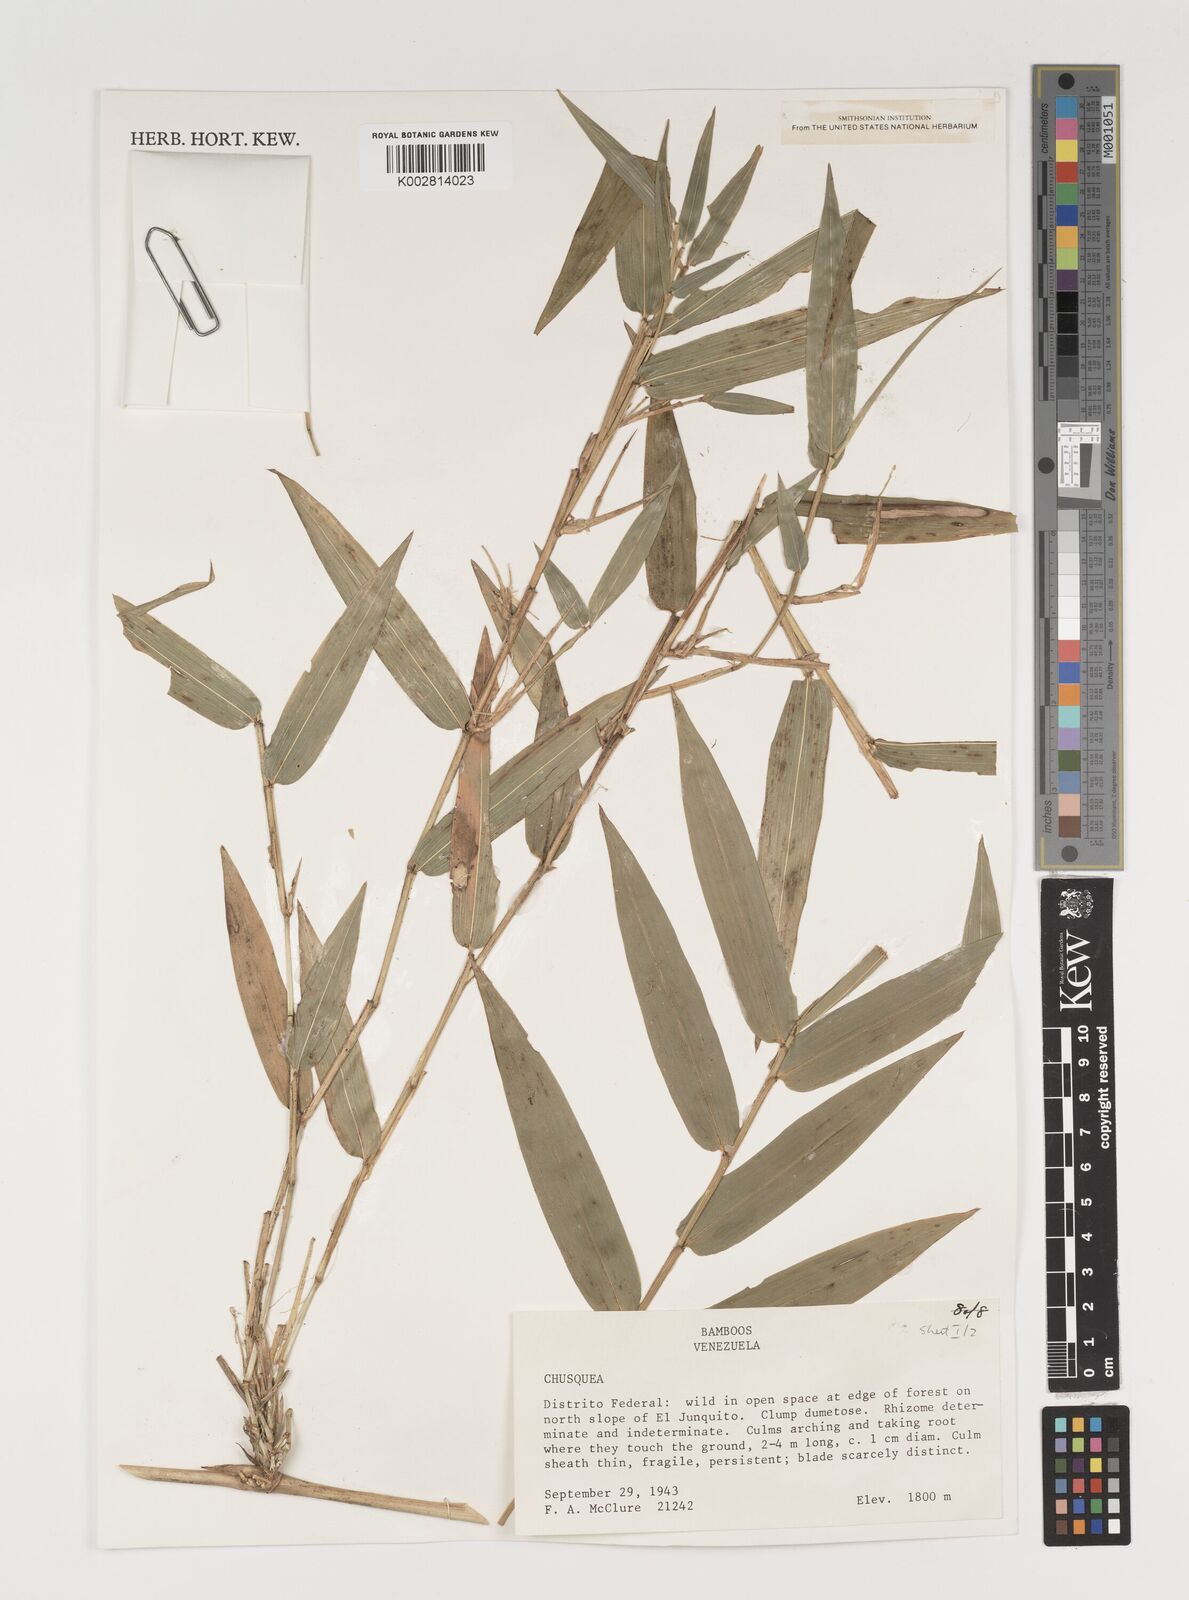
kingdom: Plantae
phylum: Tracheophyta
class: Liliopsida
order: Poales
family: Poaceae
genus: Chusquea
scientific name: Chusquea
